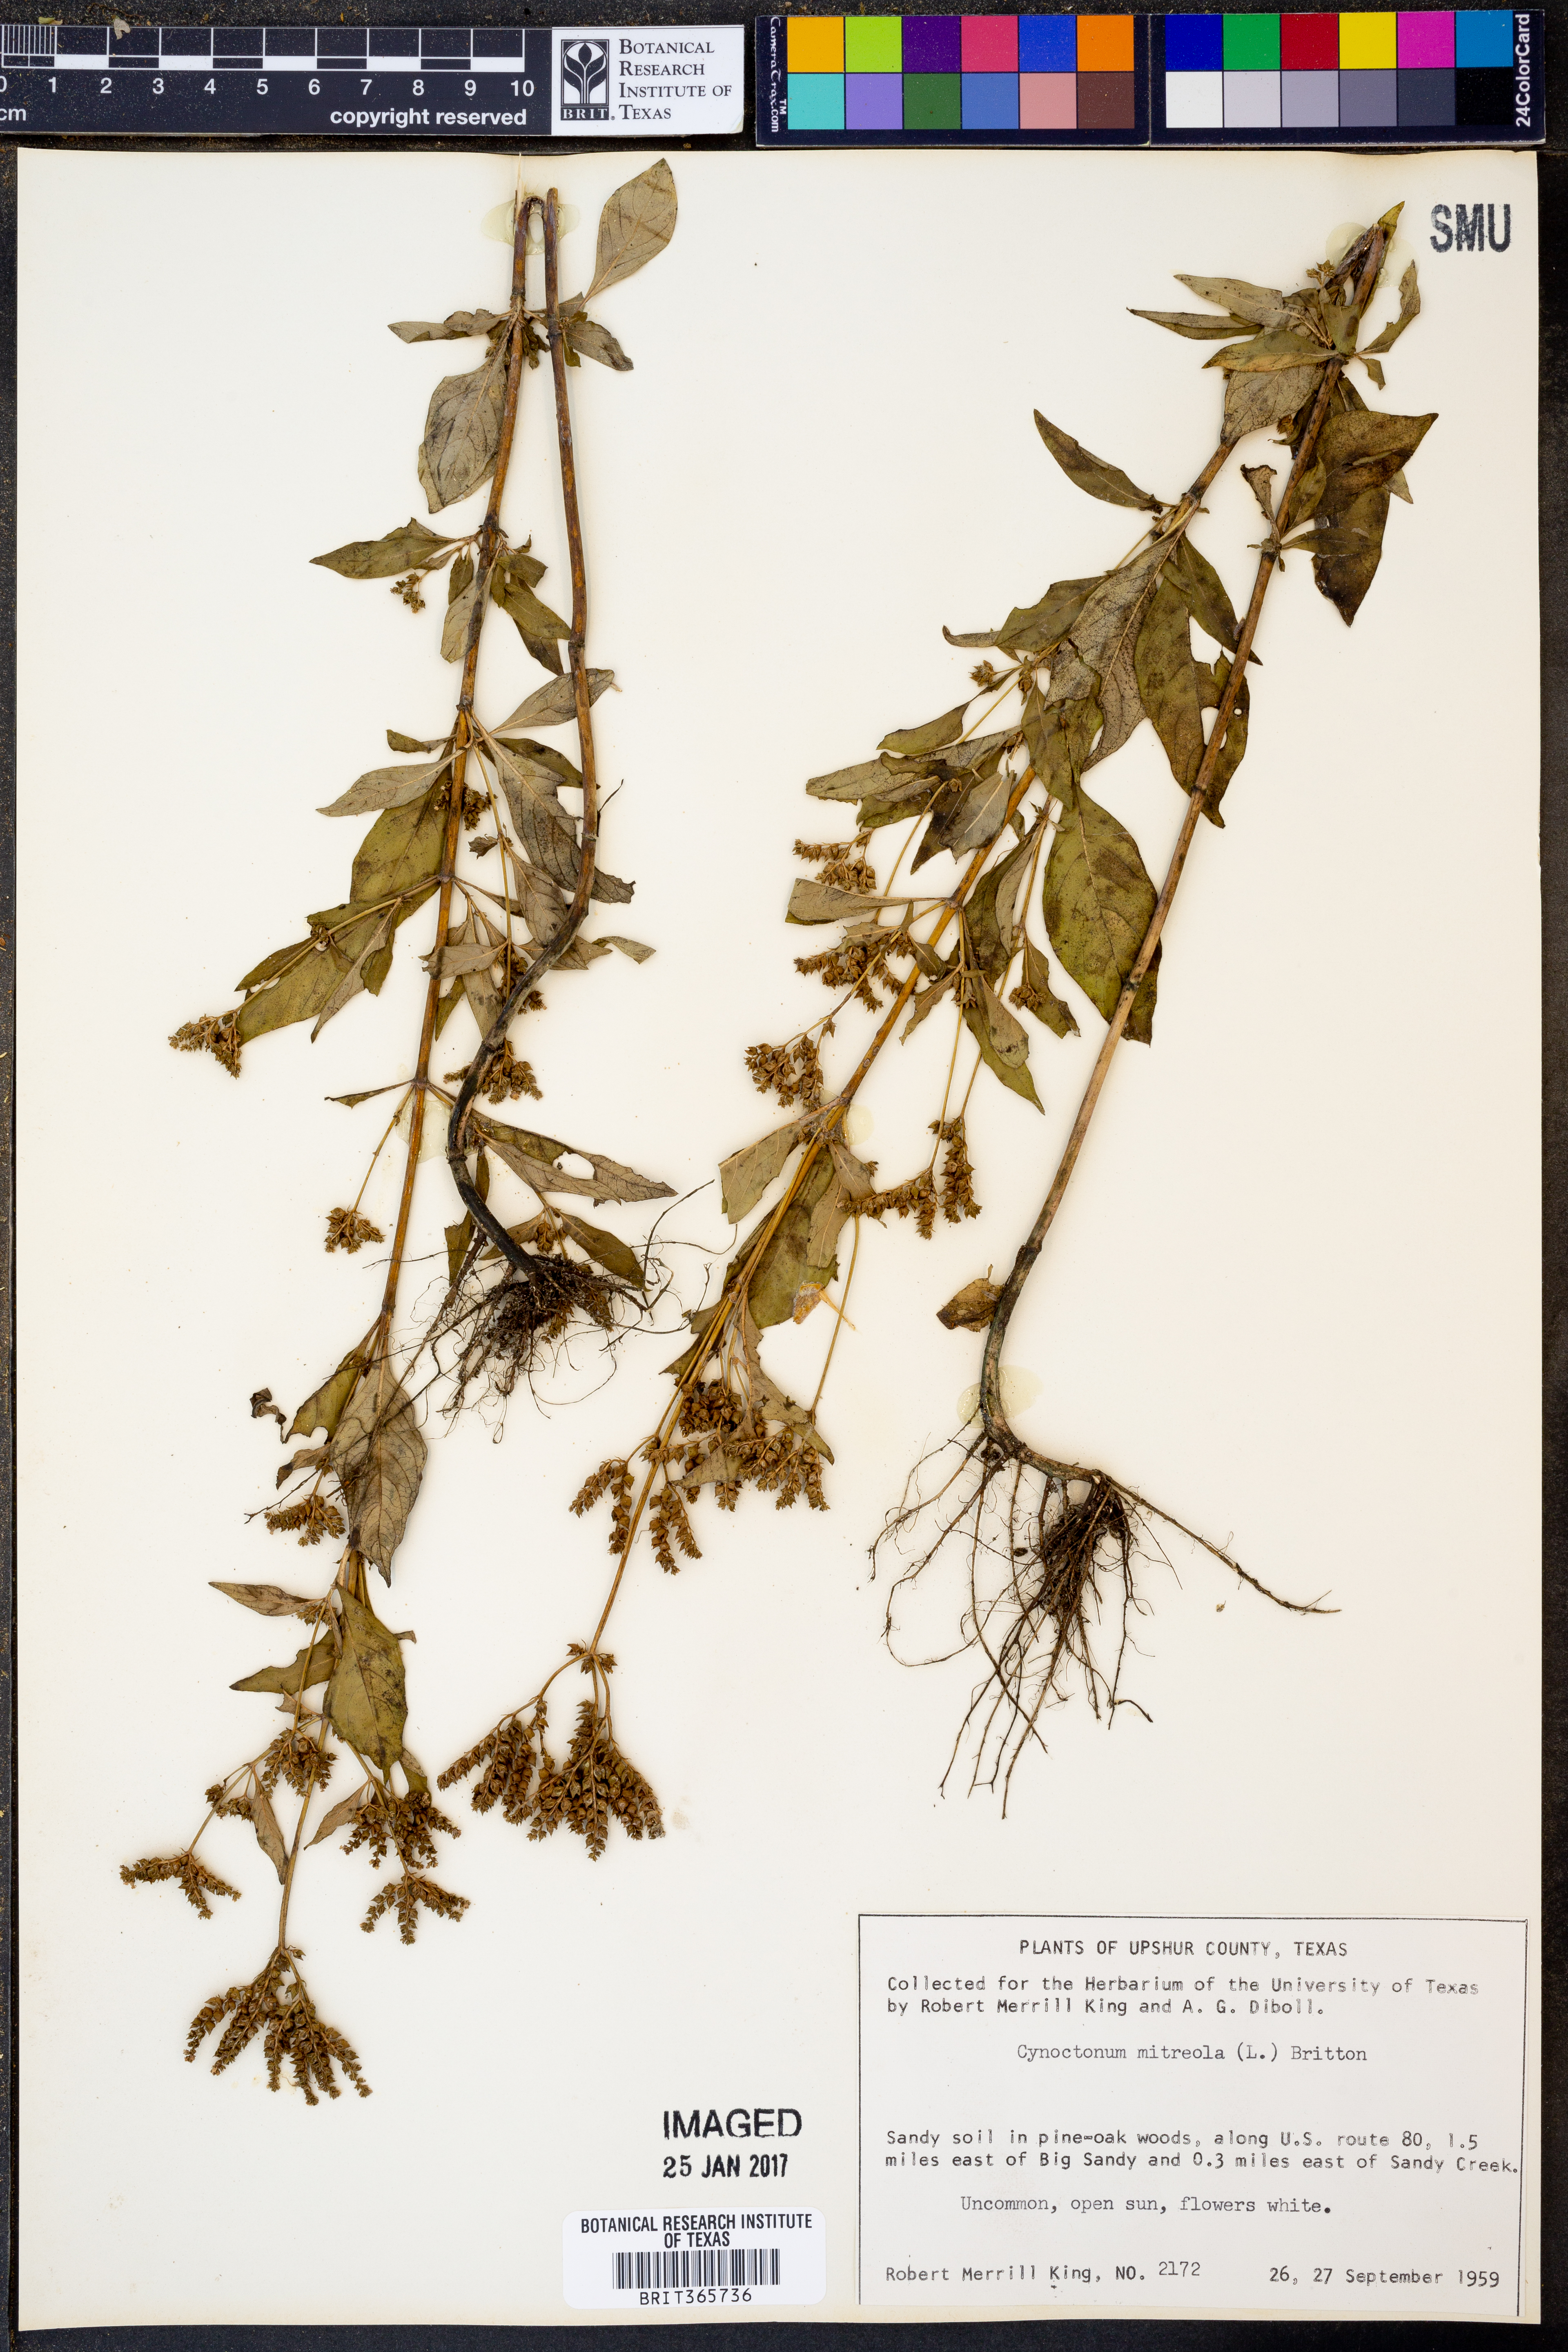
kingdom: Plantae
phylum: Tracheophyta
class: Magnoliopsida
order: Gentianales
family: Loganiaceae
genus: Mitreola
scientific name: Mitreola petiolata
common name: Lax hornpod
